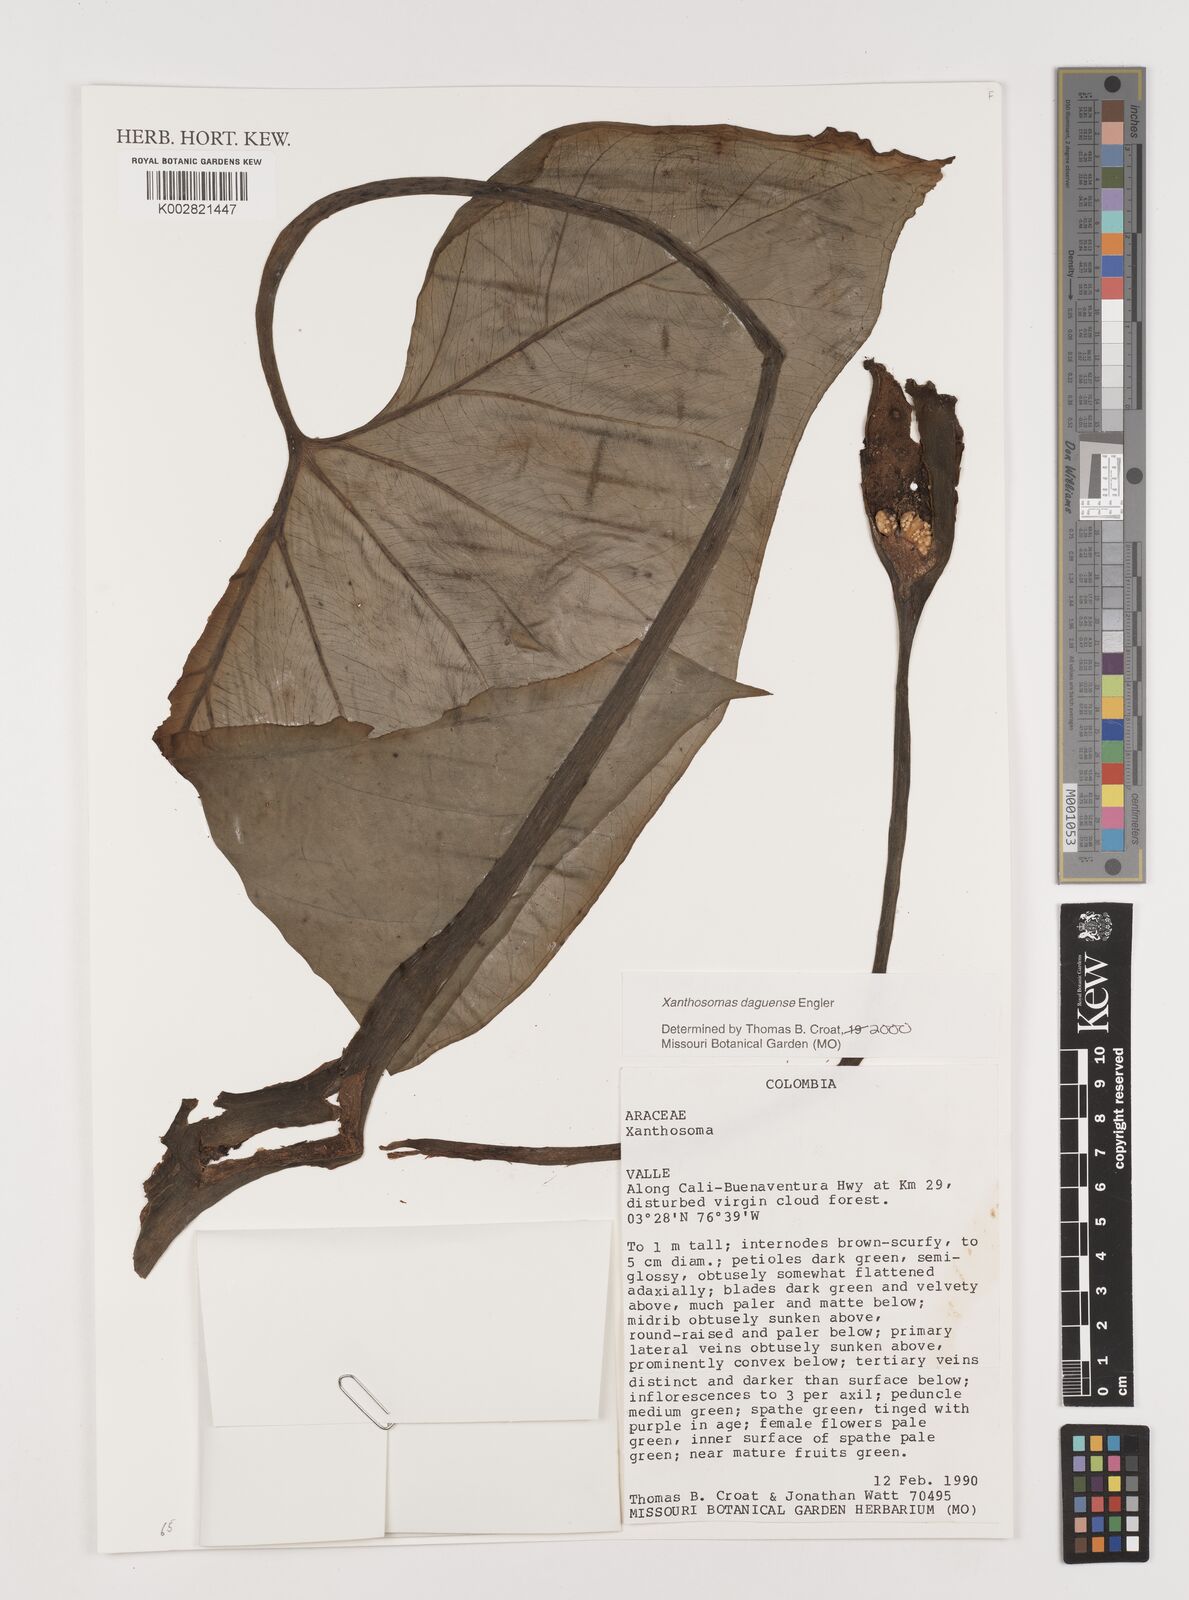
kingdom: Plantae
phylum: Tracheophyta
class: Liliopsida
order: Alismatales
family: Araceae
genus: Xanthosoma
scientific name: Xanthosoma daguense
